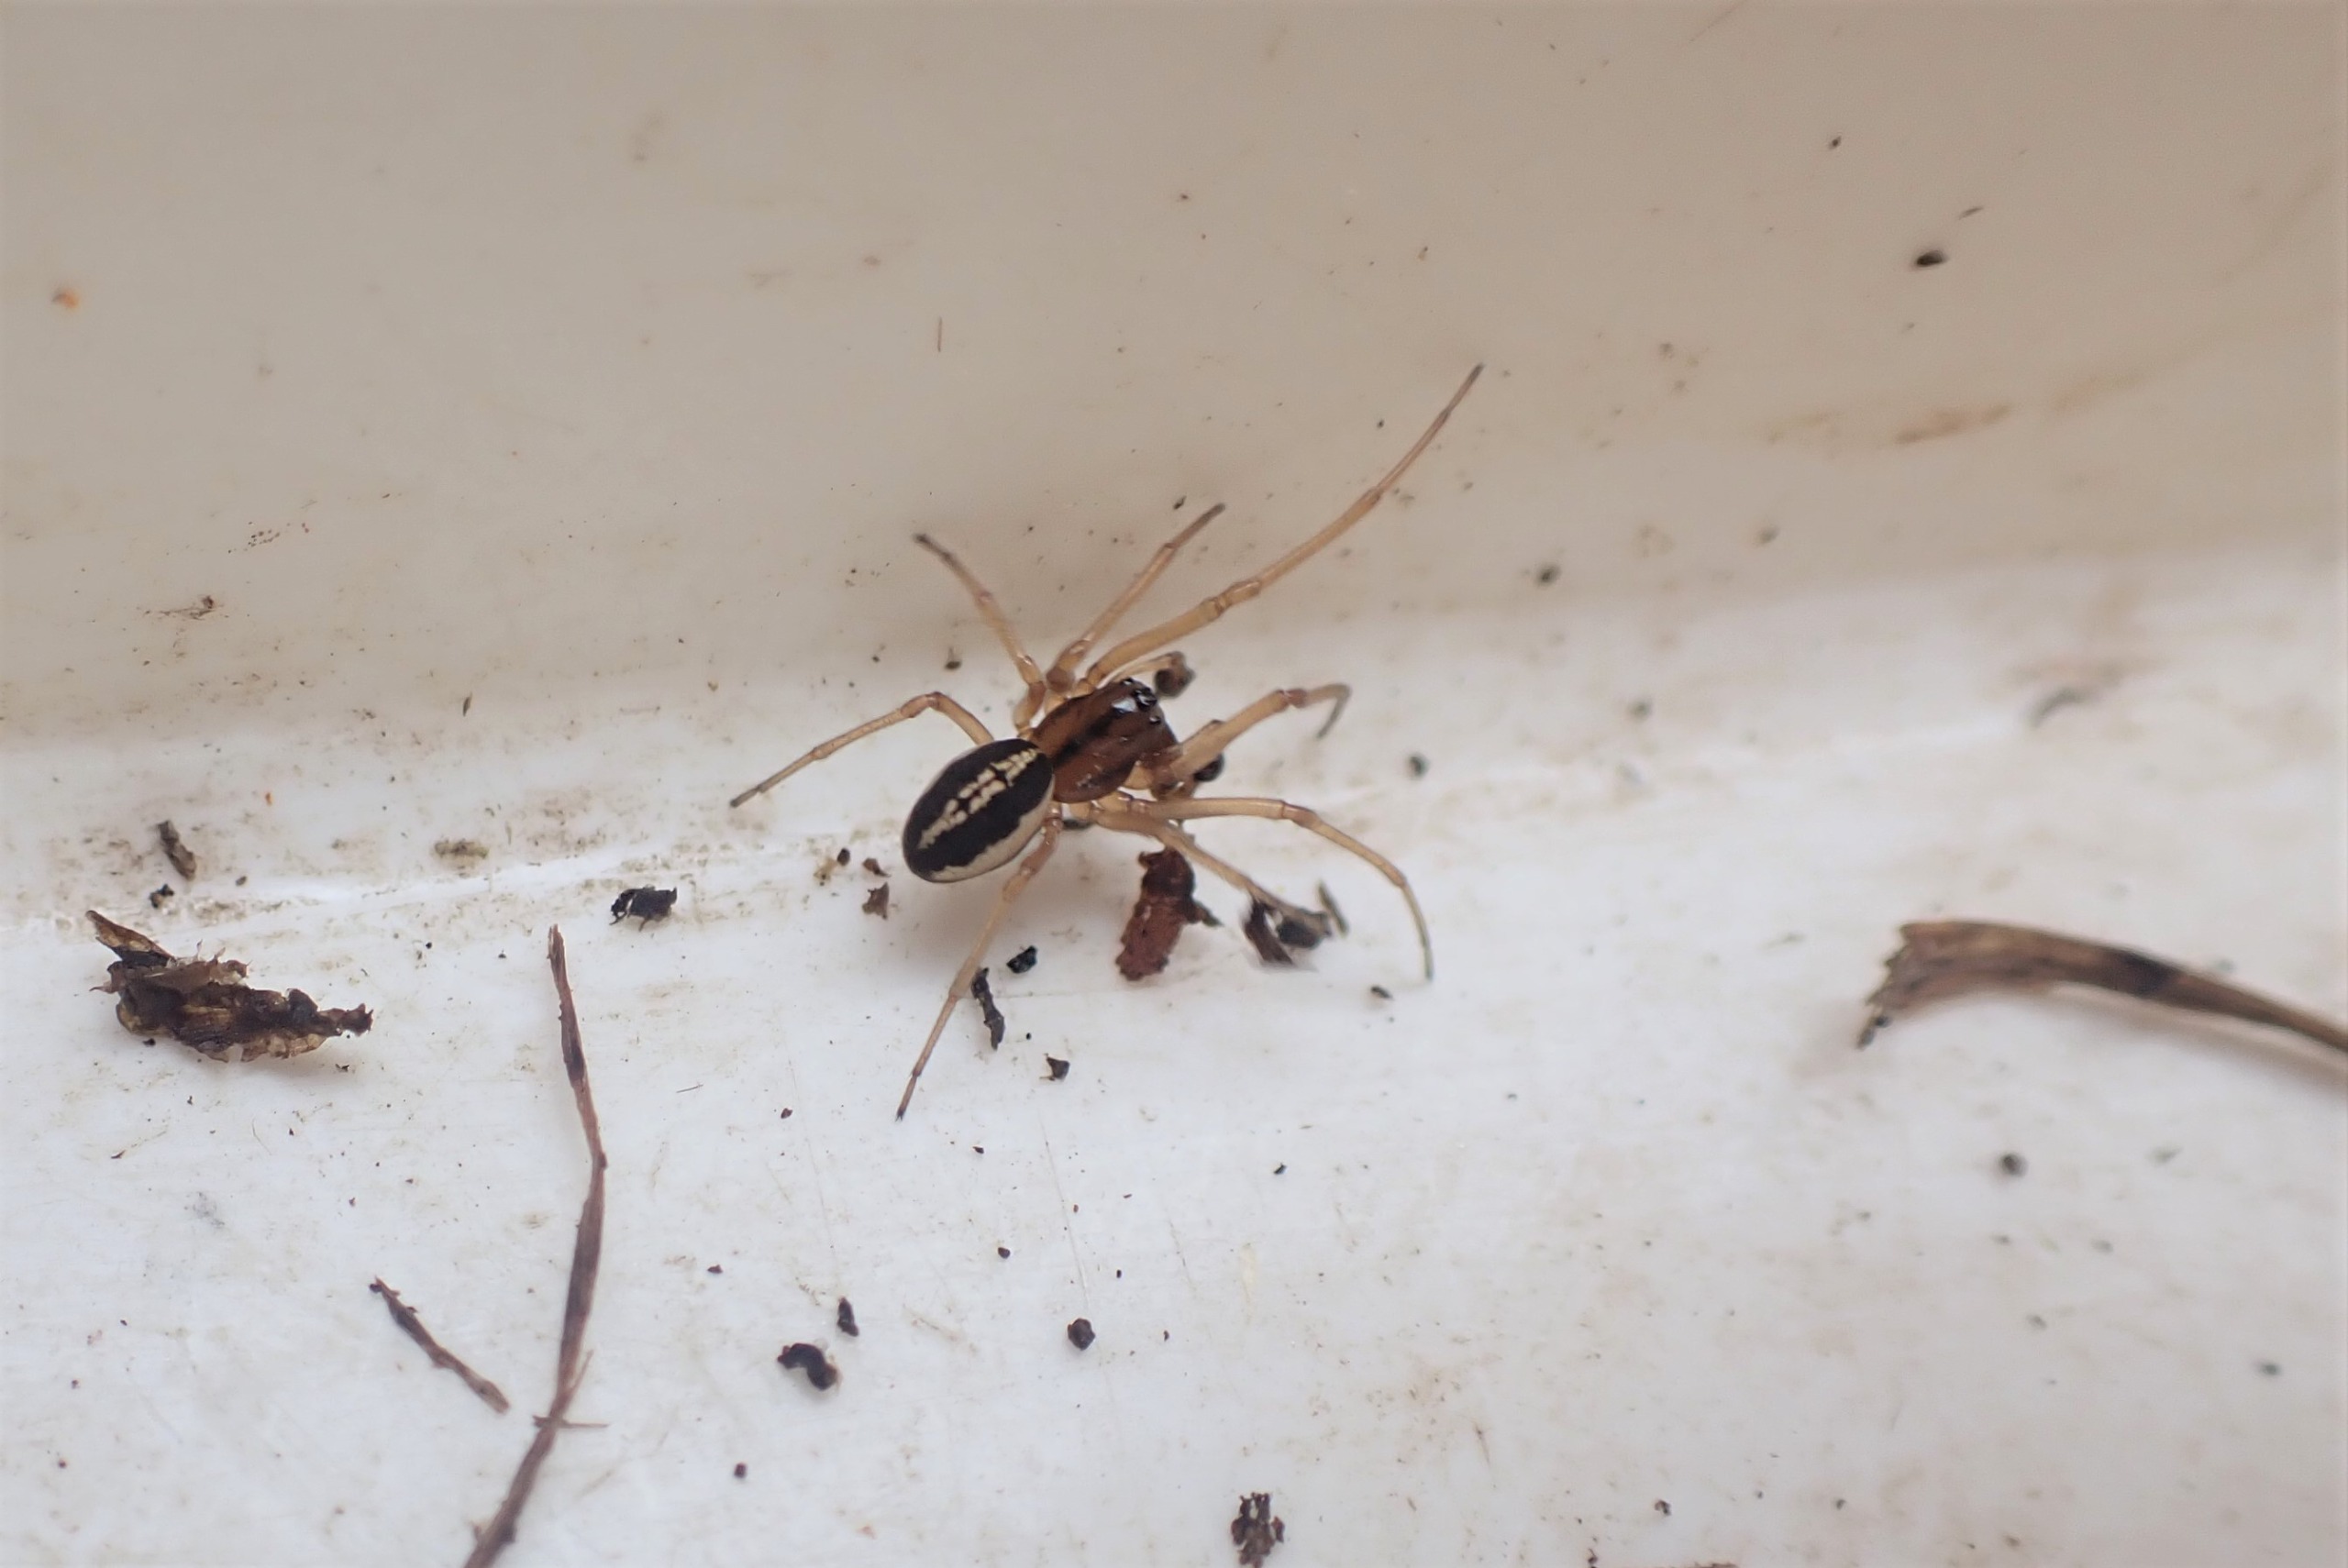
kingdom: Animalia
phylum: Arthropoda
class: Arachnida
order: Araneae
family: Tetragnathidae
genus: Pachygnatha
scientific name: Pachygnatha clercki
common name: Søtykkæbe
